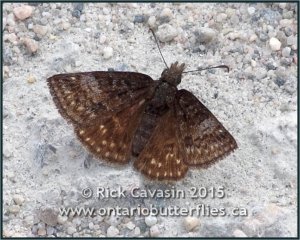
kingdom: Animalia
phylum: Arthropoda
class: Insecta
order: Lepidoptera
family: Hesperiidae
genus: Erynnis
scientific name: Erynnis icelus
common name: Dreamy Duskywing
